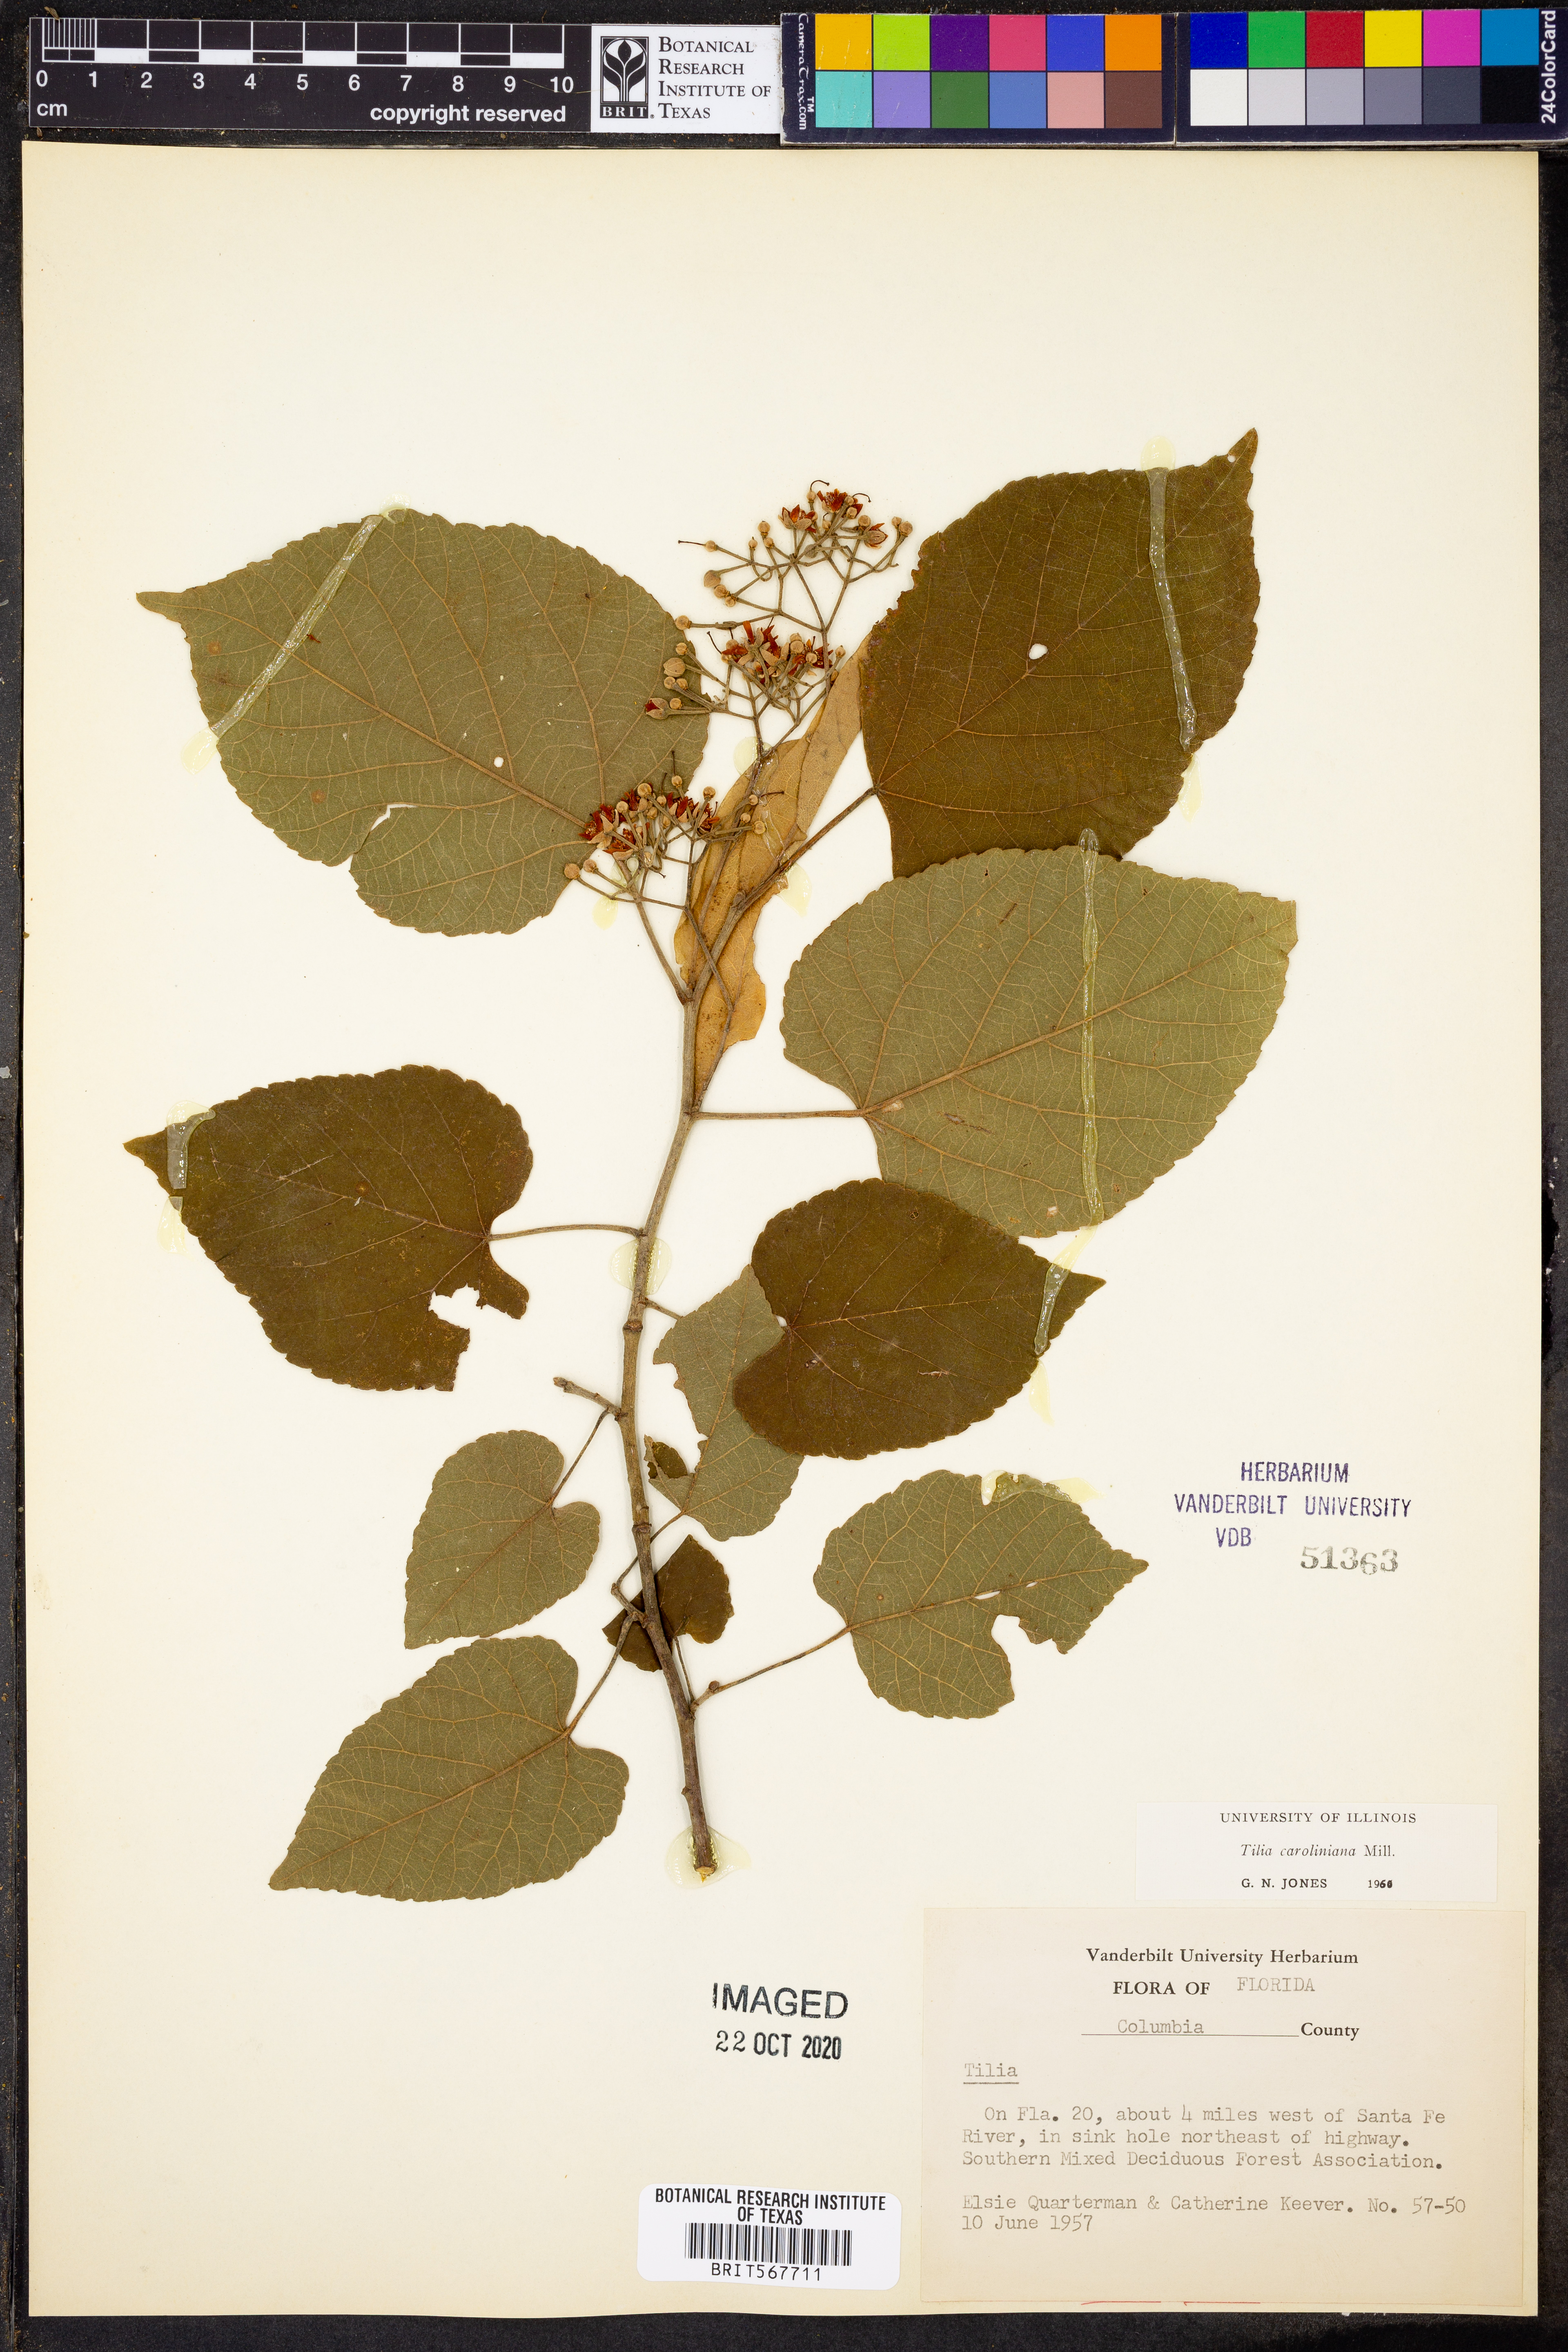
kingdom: Plantae
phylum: Tracheophyta
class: Magnoliopsida
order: Malvales
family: Malvaceae
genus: Tilia
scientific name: Tilia americana
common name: Basswood
